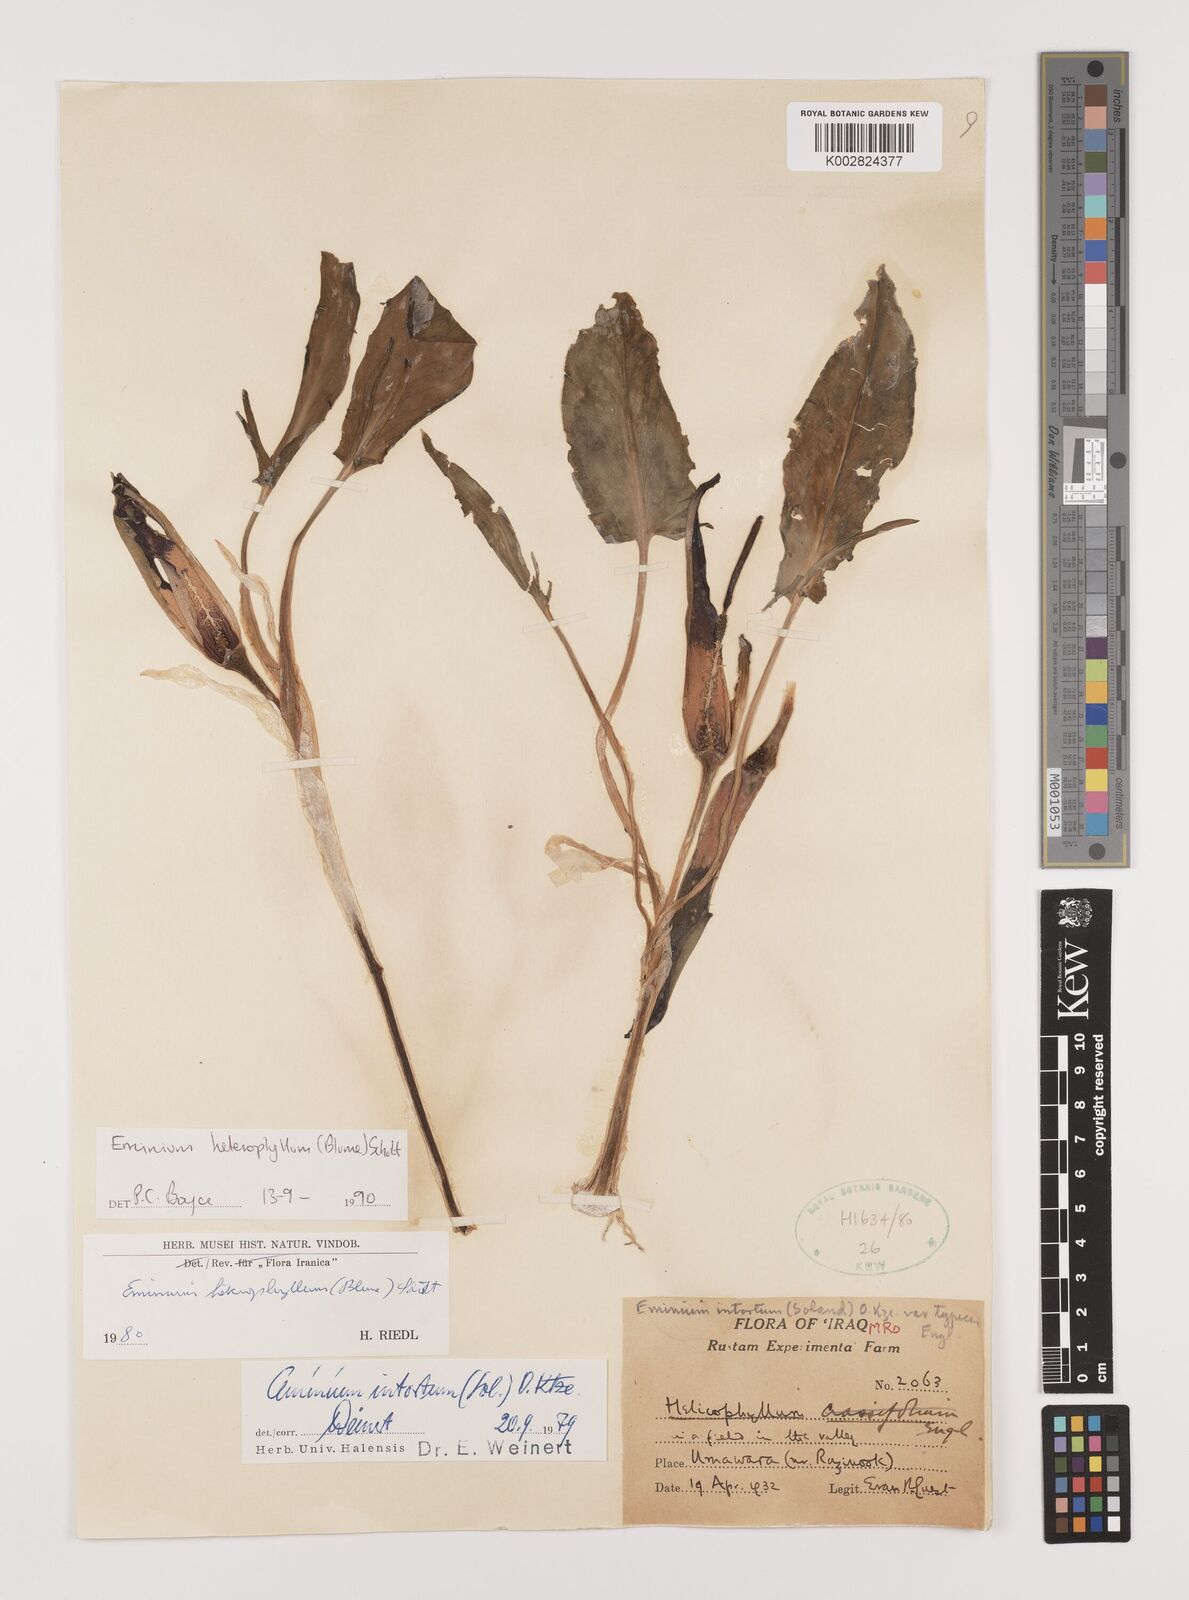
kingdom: Plantae
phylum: Tracheophyta
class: Liliopsida
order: Alismatales
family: Araceae
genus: Eminium
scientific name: Eminium rauwolffii
